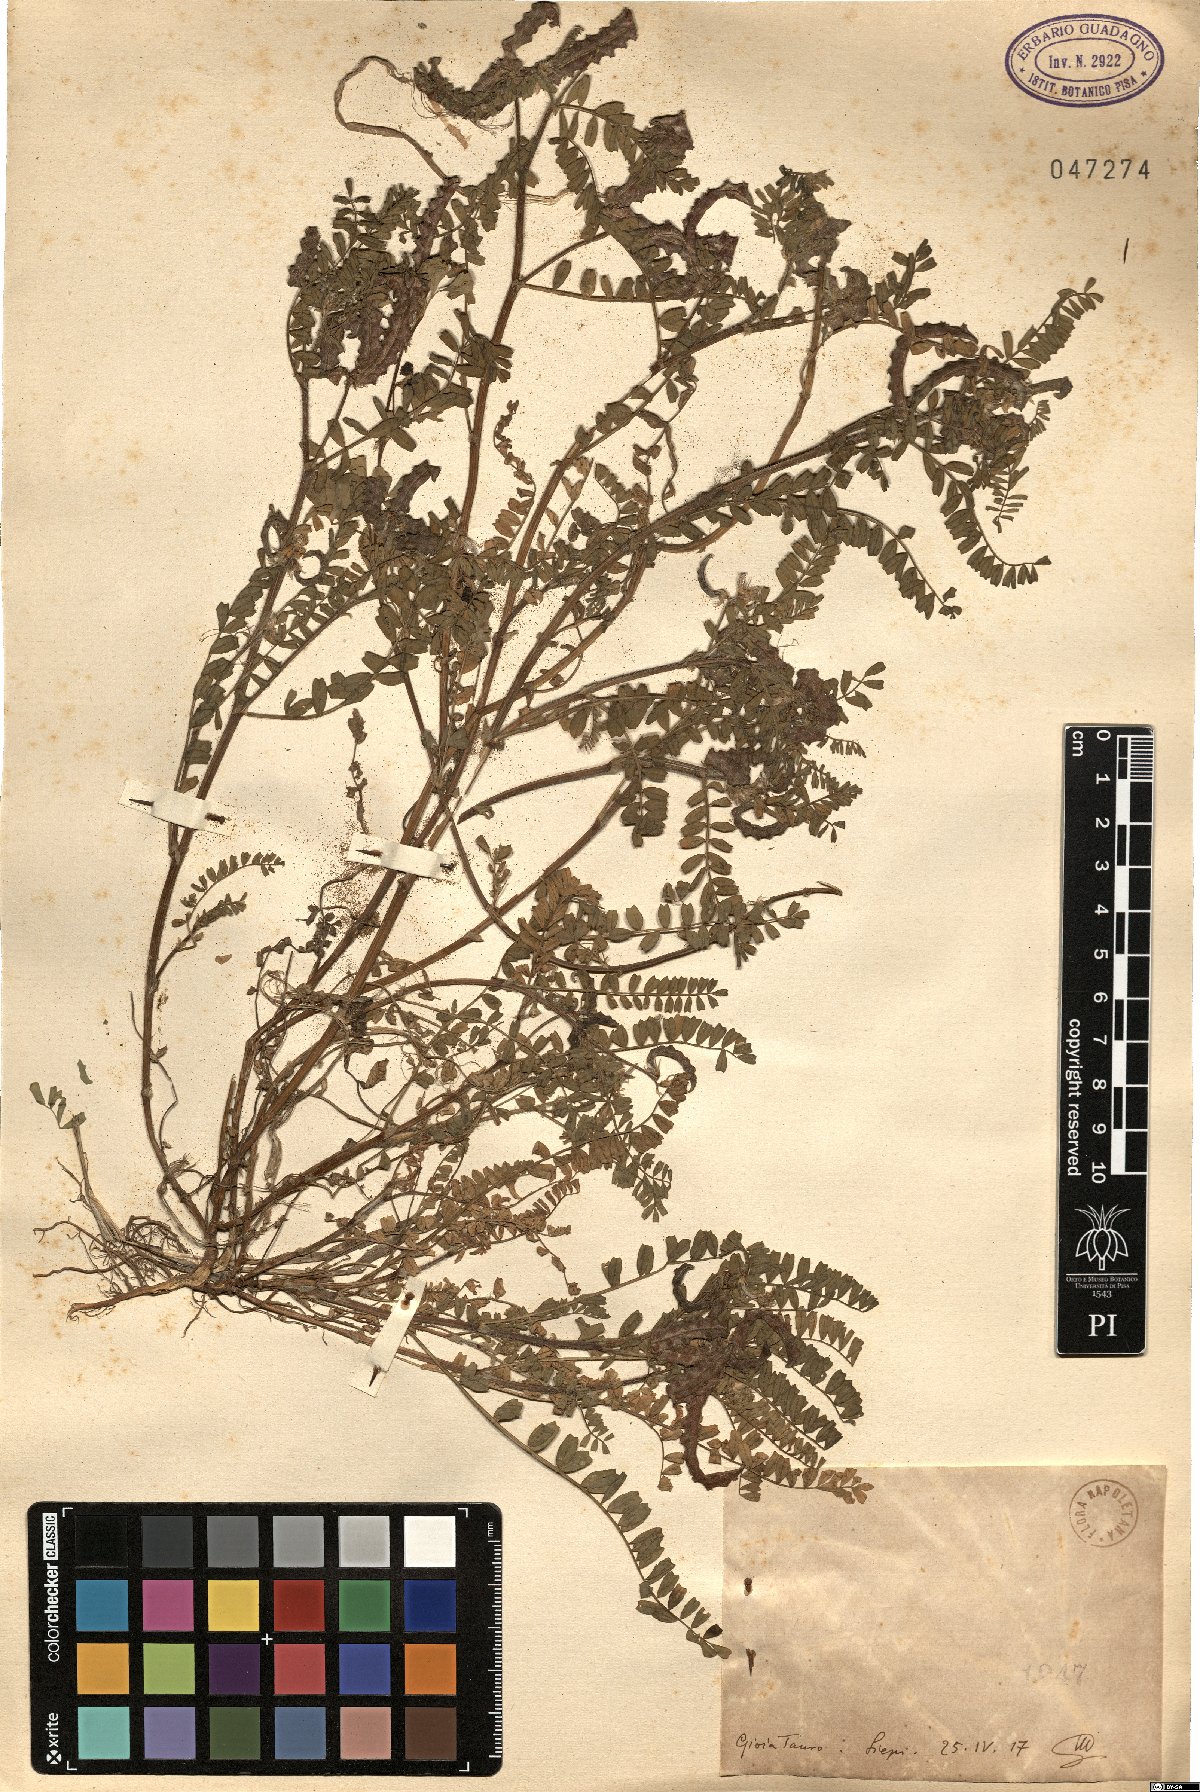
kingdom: Plantae
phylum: Tracheophyta
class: Magnoliopsida
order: Fabales
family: Fabaceae
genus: Biserrula
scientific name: Biserrula
